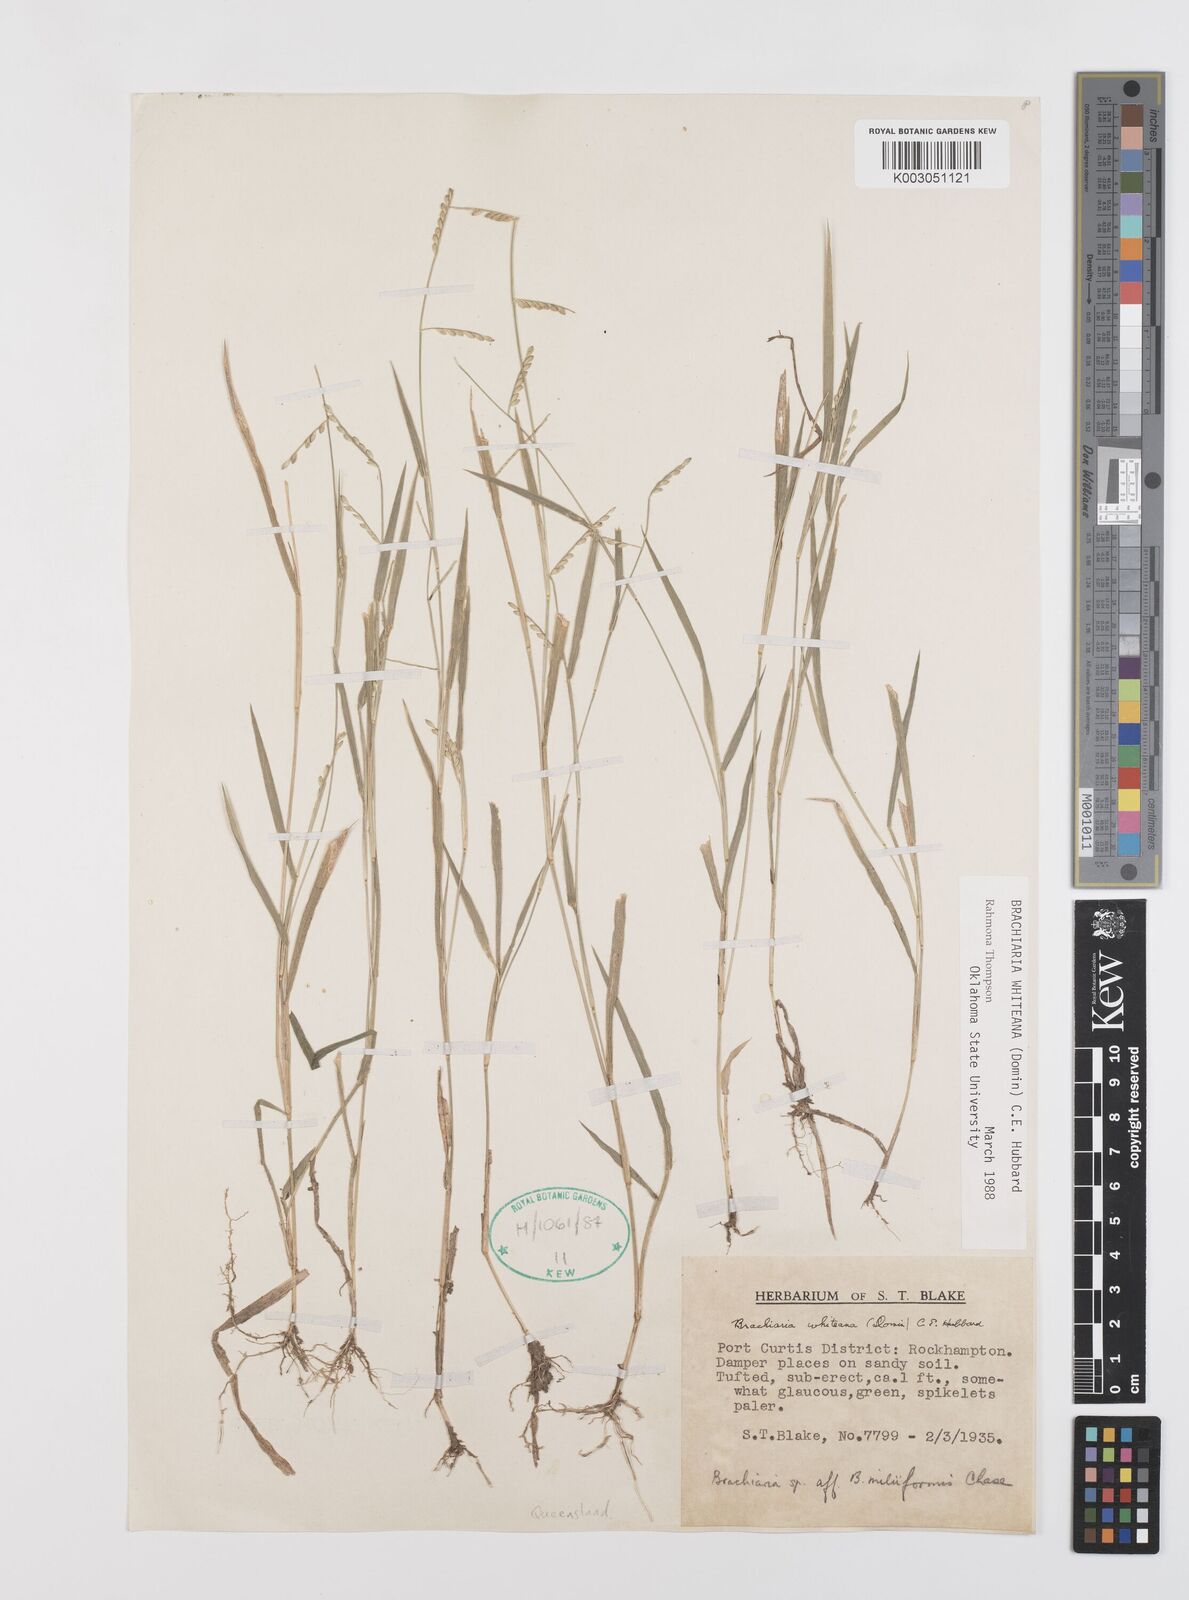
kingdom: Plantae
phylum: Tracheophyta
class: Liliopsida
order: Poales
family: Poaceae
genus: Urochloa
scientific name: Urochloa whiteana
